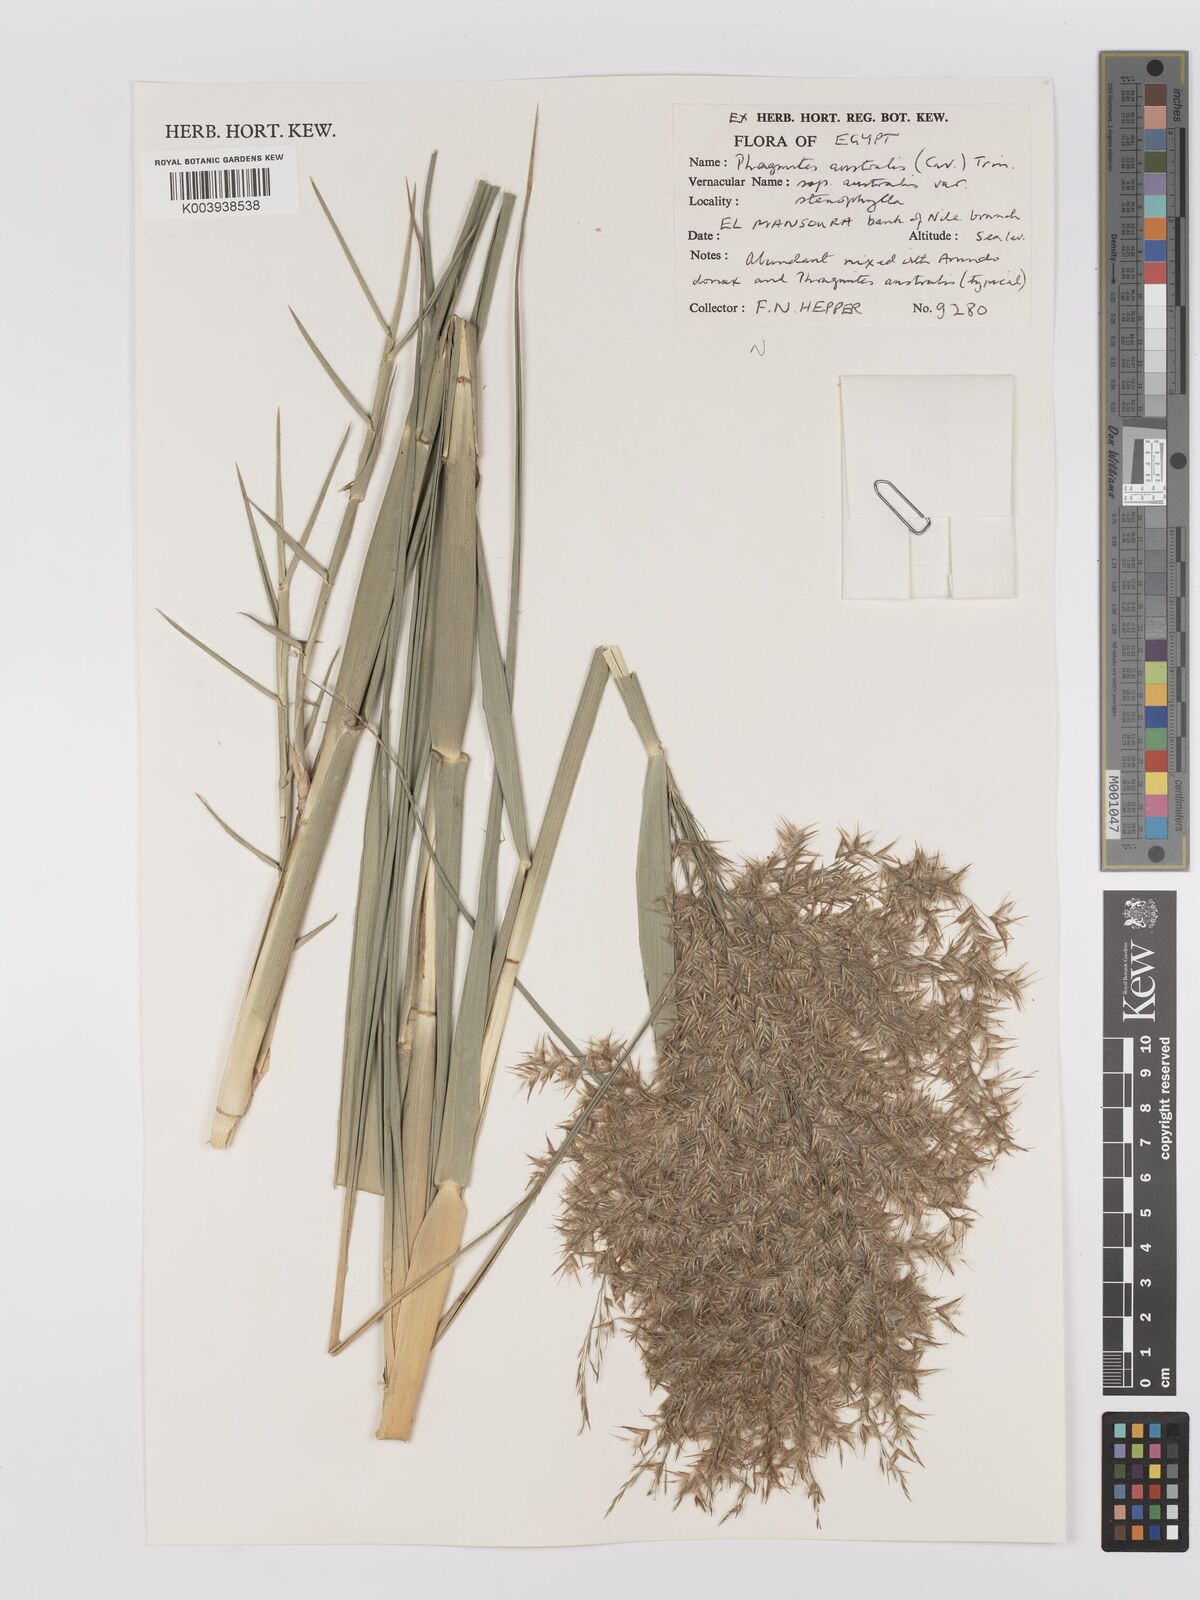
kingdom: Plantae
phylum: Tracheophyta
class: Liliopsida
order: Poales
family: Poaceae
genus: Phragmites
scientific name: Phragmites australis
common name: Common reed
